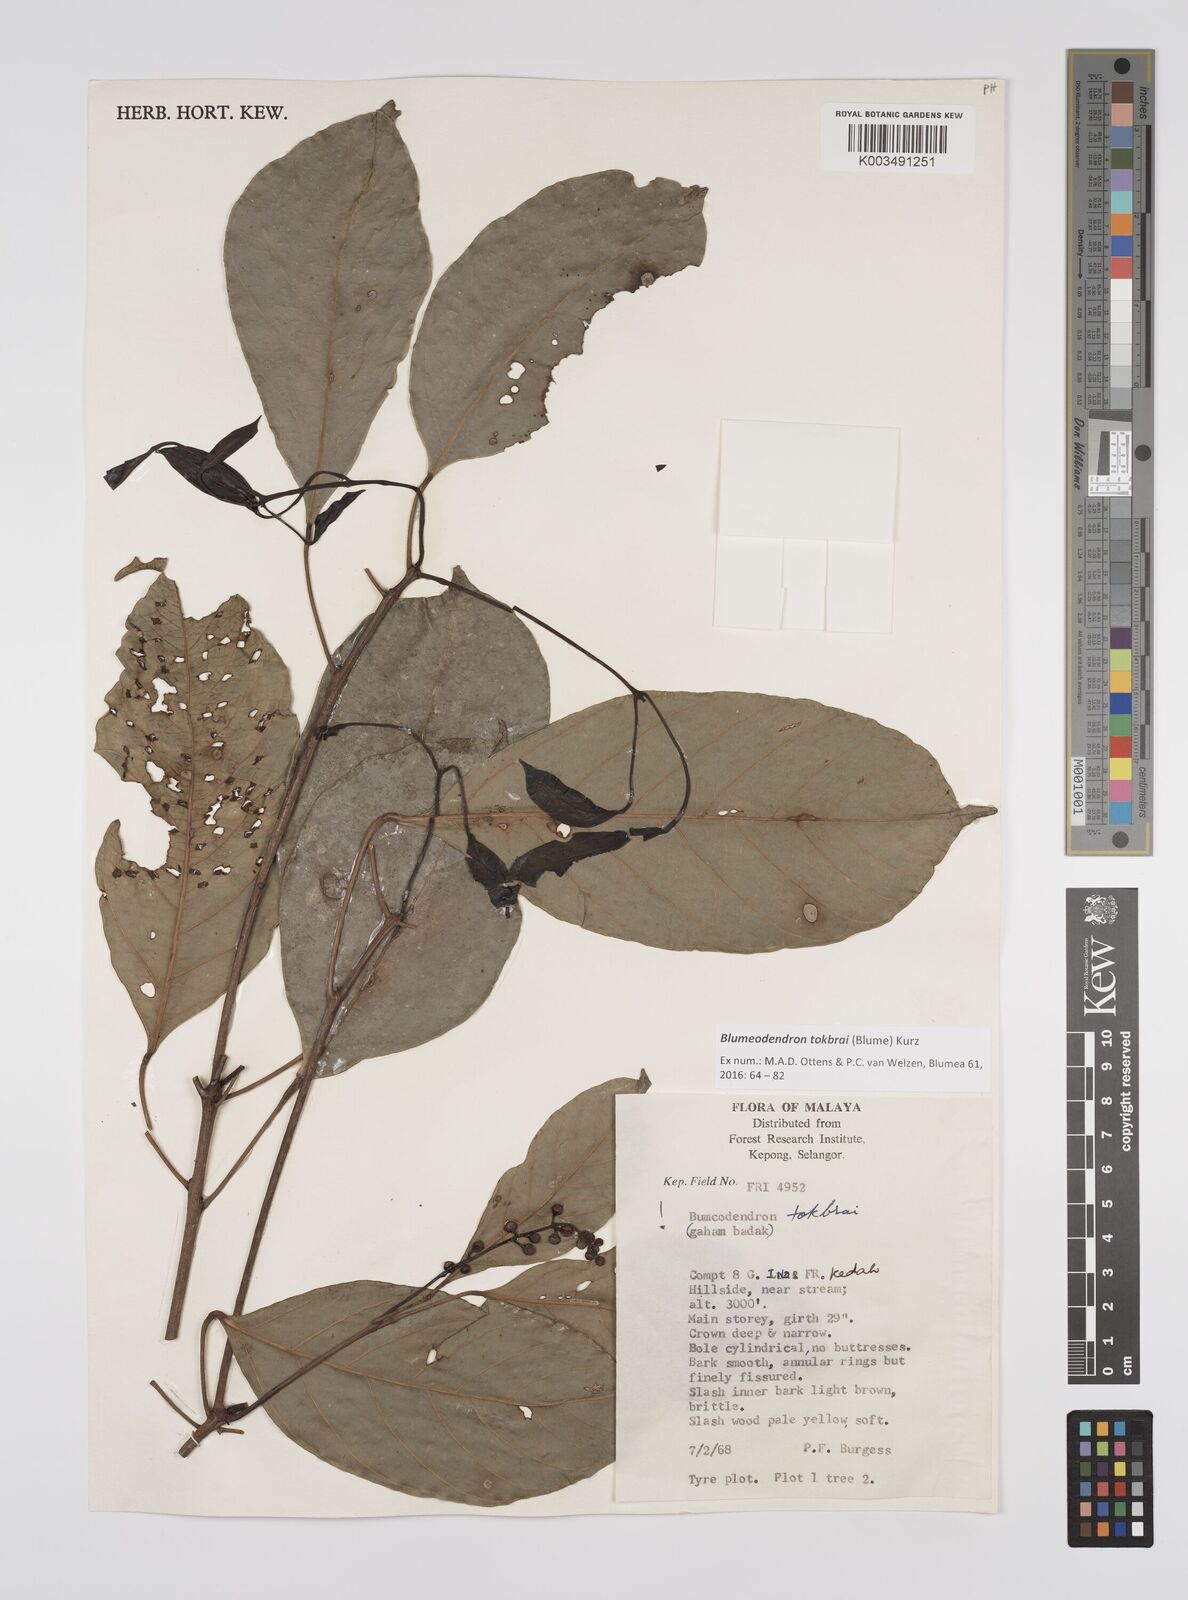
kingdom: Plantae
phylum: Tracheophyta
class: Magnoliopsida
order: Malpighiales
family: Euphorbiaceae
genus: Blumeodendron
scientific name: Blumeodendron tokbrai
